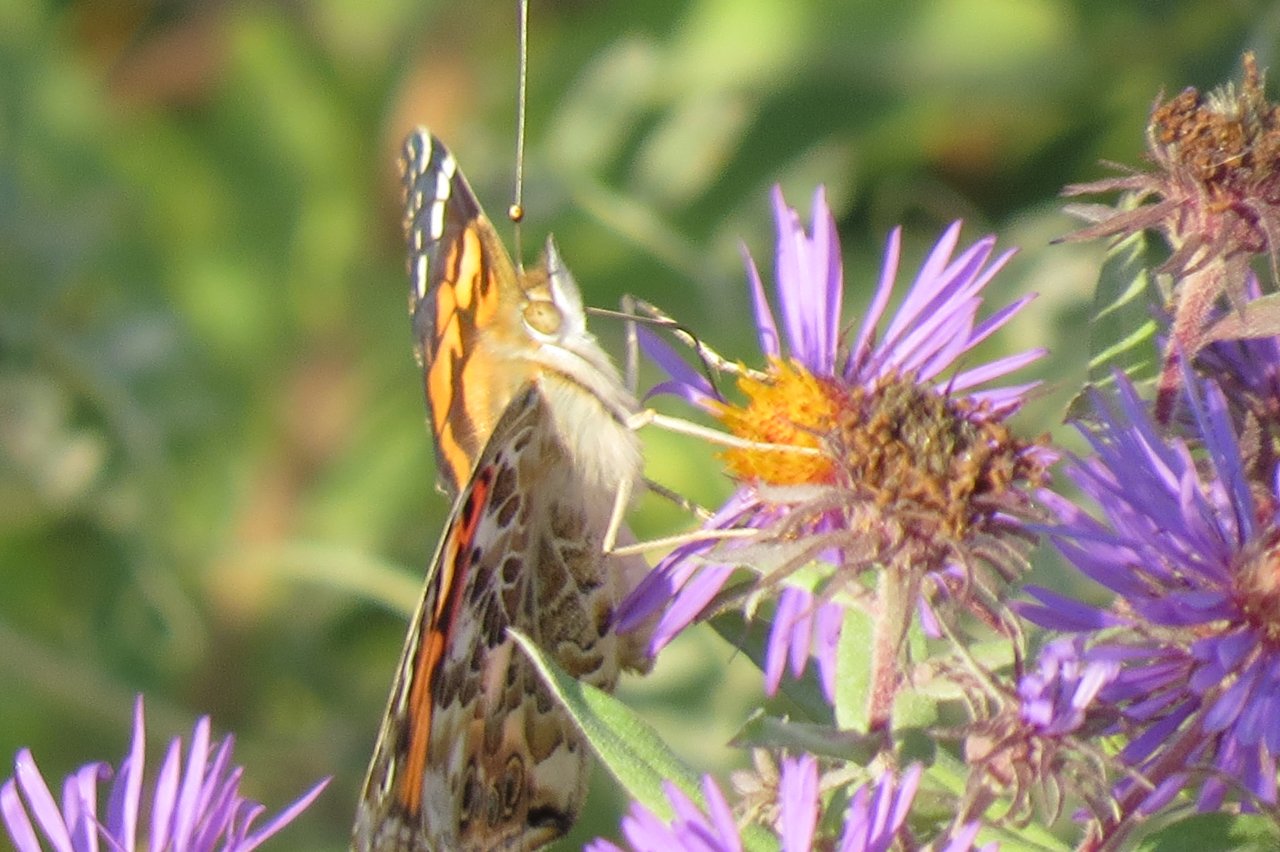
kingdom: Animalia
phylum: Arthropoda
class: Insecta
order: Lepidoptera
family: Nymphalidae
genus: Vanessa
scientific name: Vanessa cardui
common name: Painted Lady
